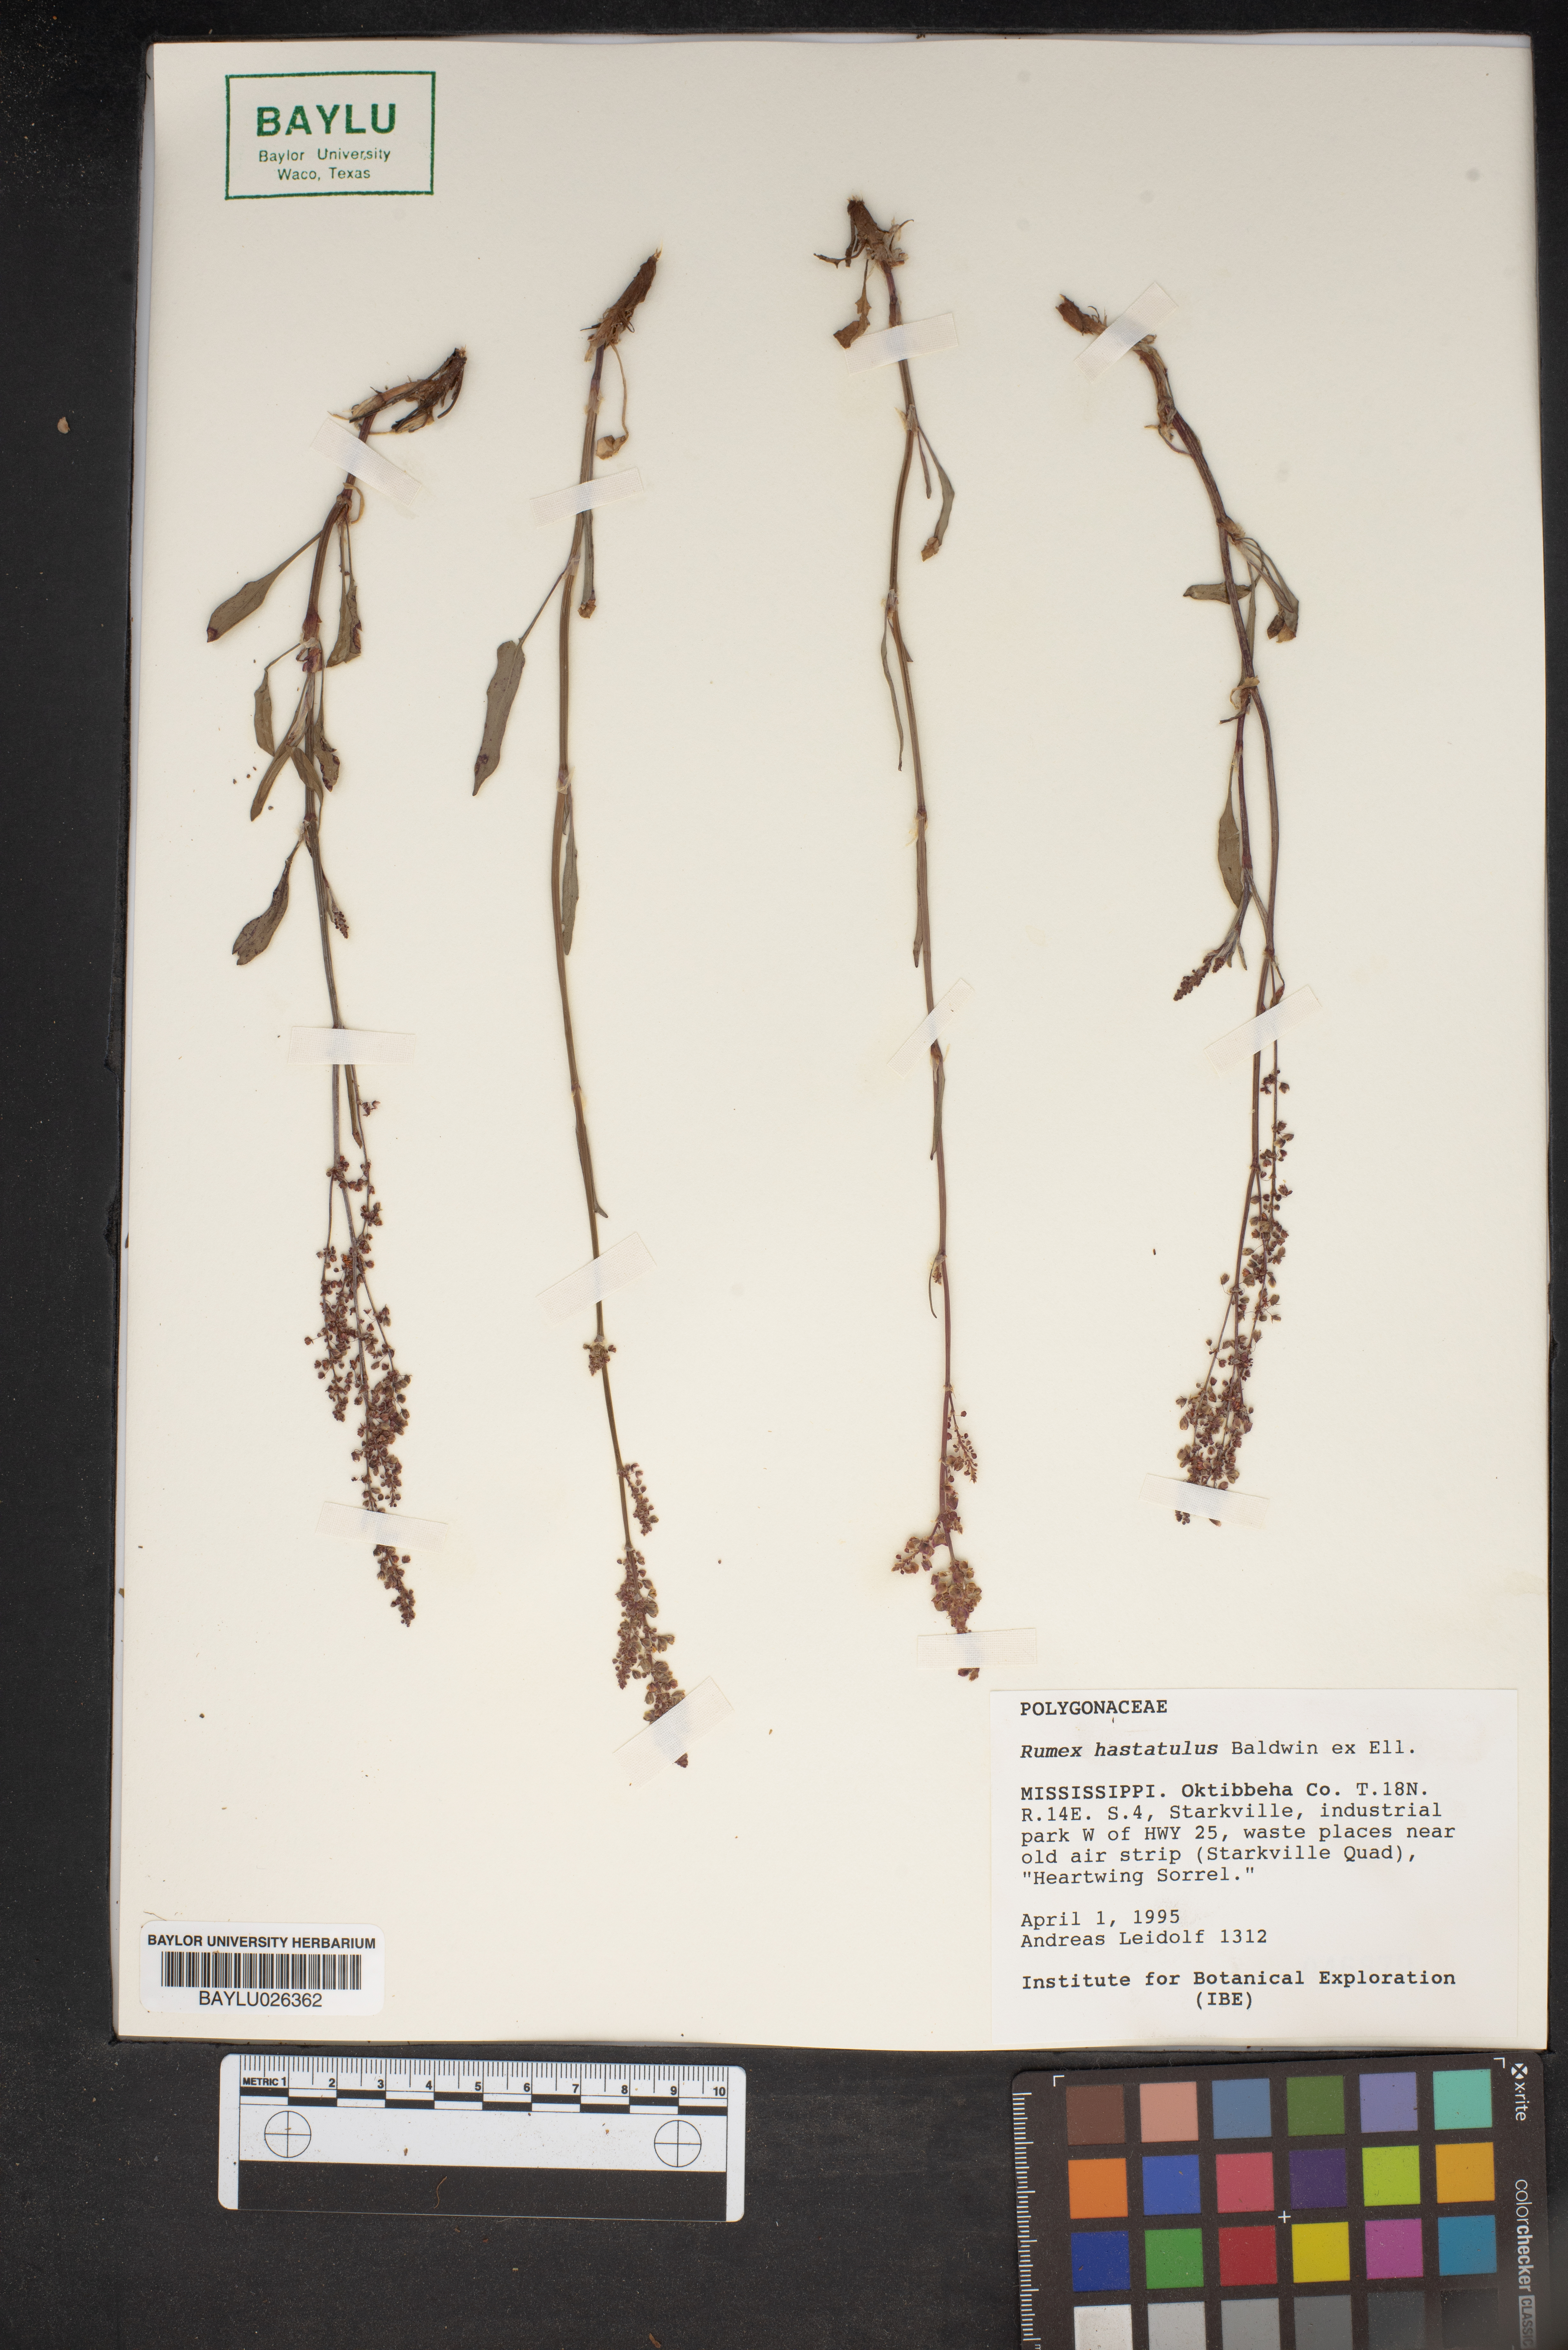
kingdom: Plantae
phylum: Tracheophyta
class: Magnoliopsida
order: Caryophyllales
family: Polygonaceae
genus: Rumex
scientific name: Rumex hastatulus
